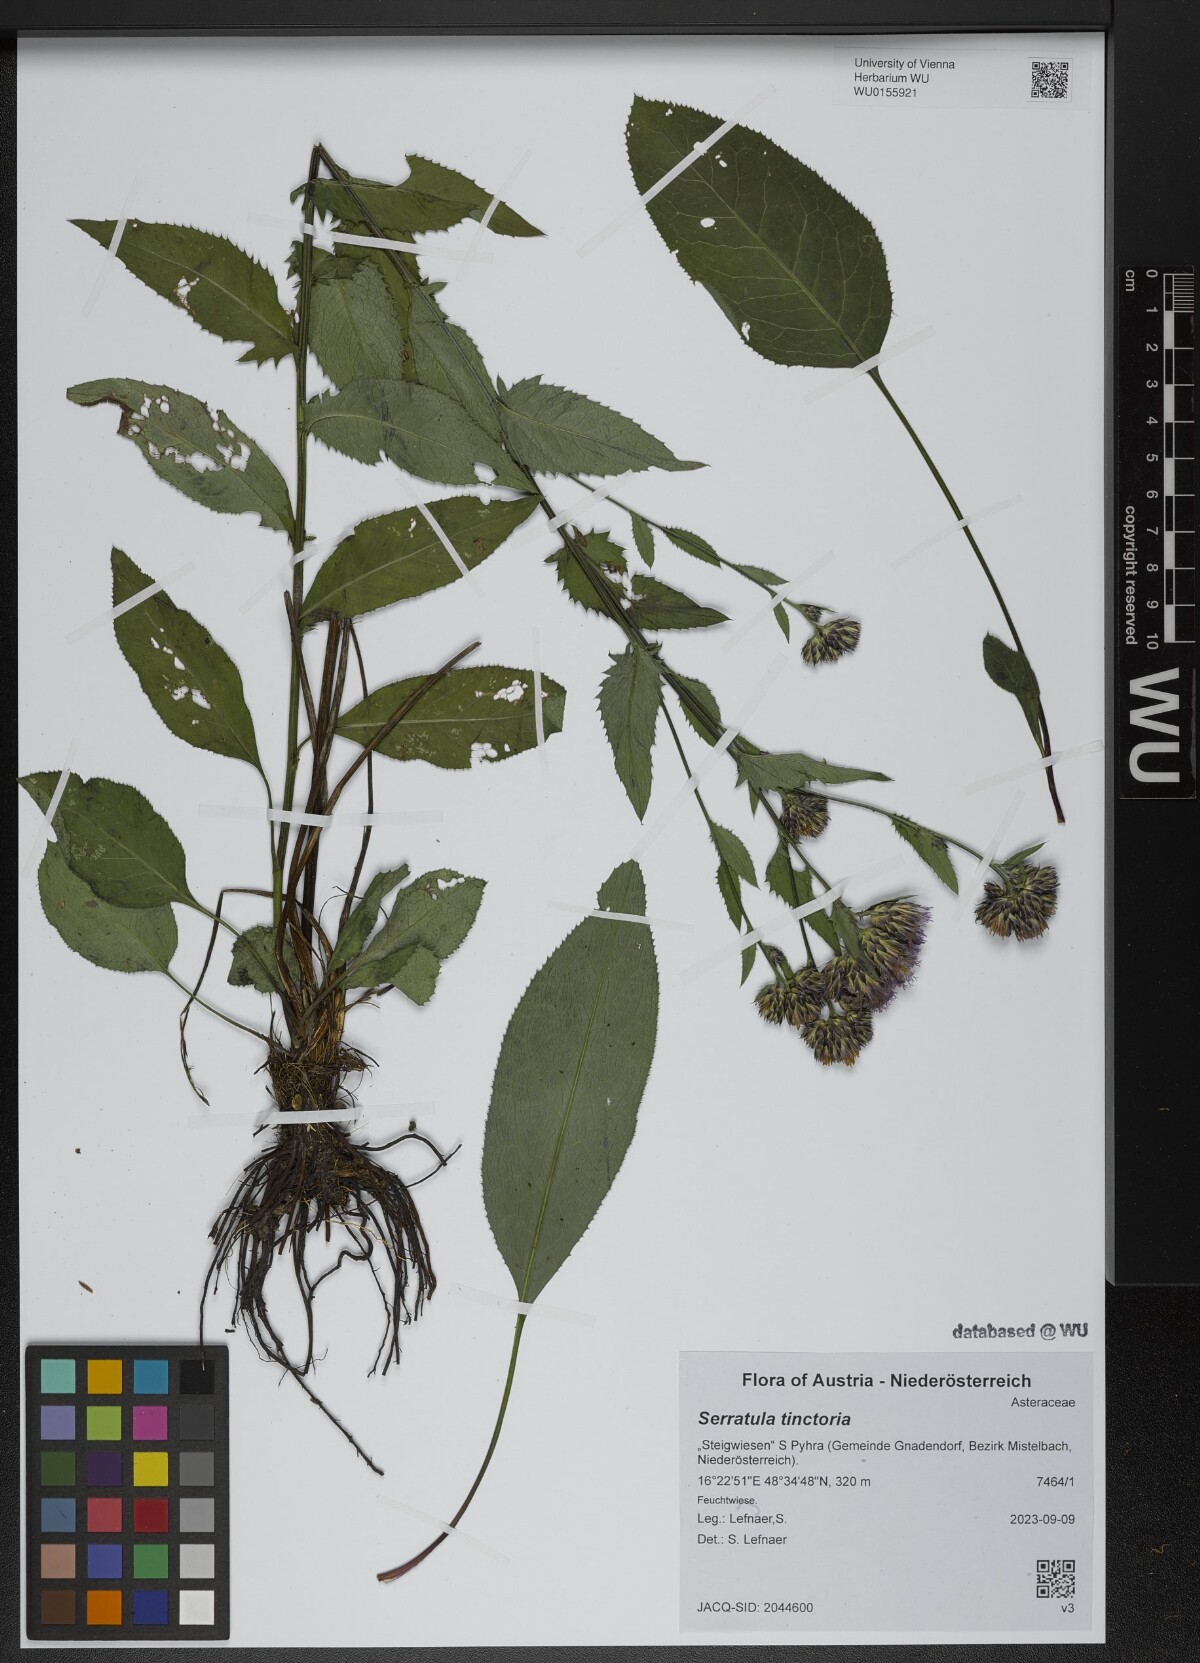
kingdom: Plantae
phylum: Tracheophyta
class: Magnoliopsida
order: Asterales
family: Asteraceae
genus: Serratula
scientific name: Serratula tinctoria
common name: Saw-wort
